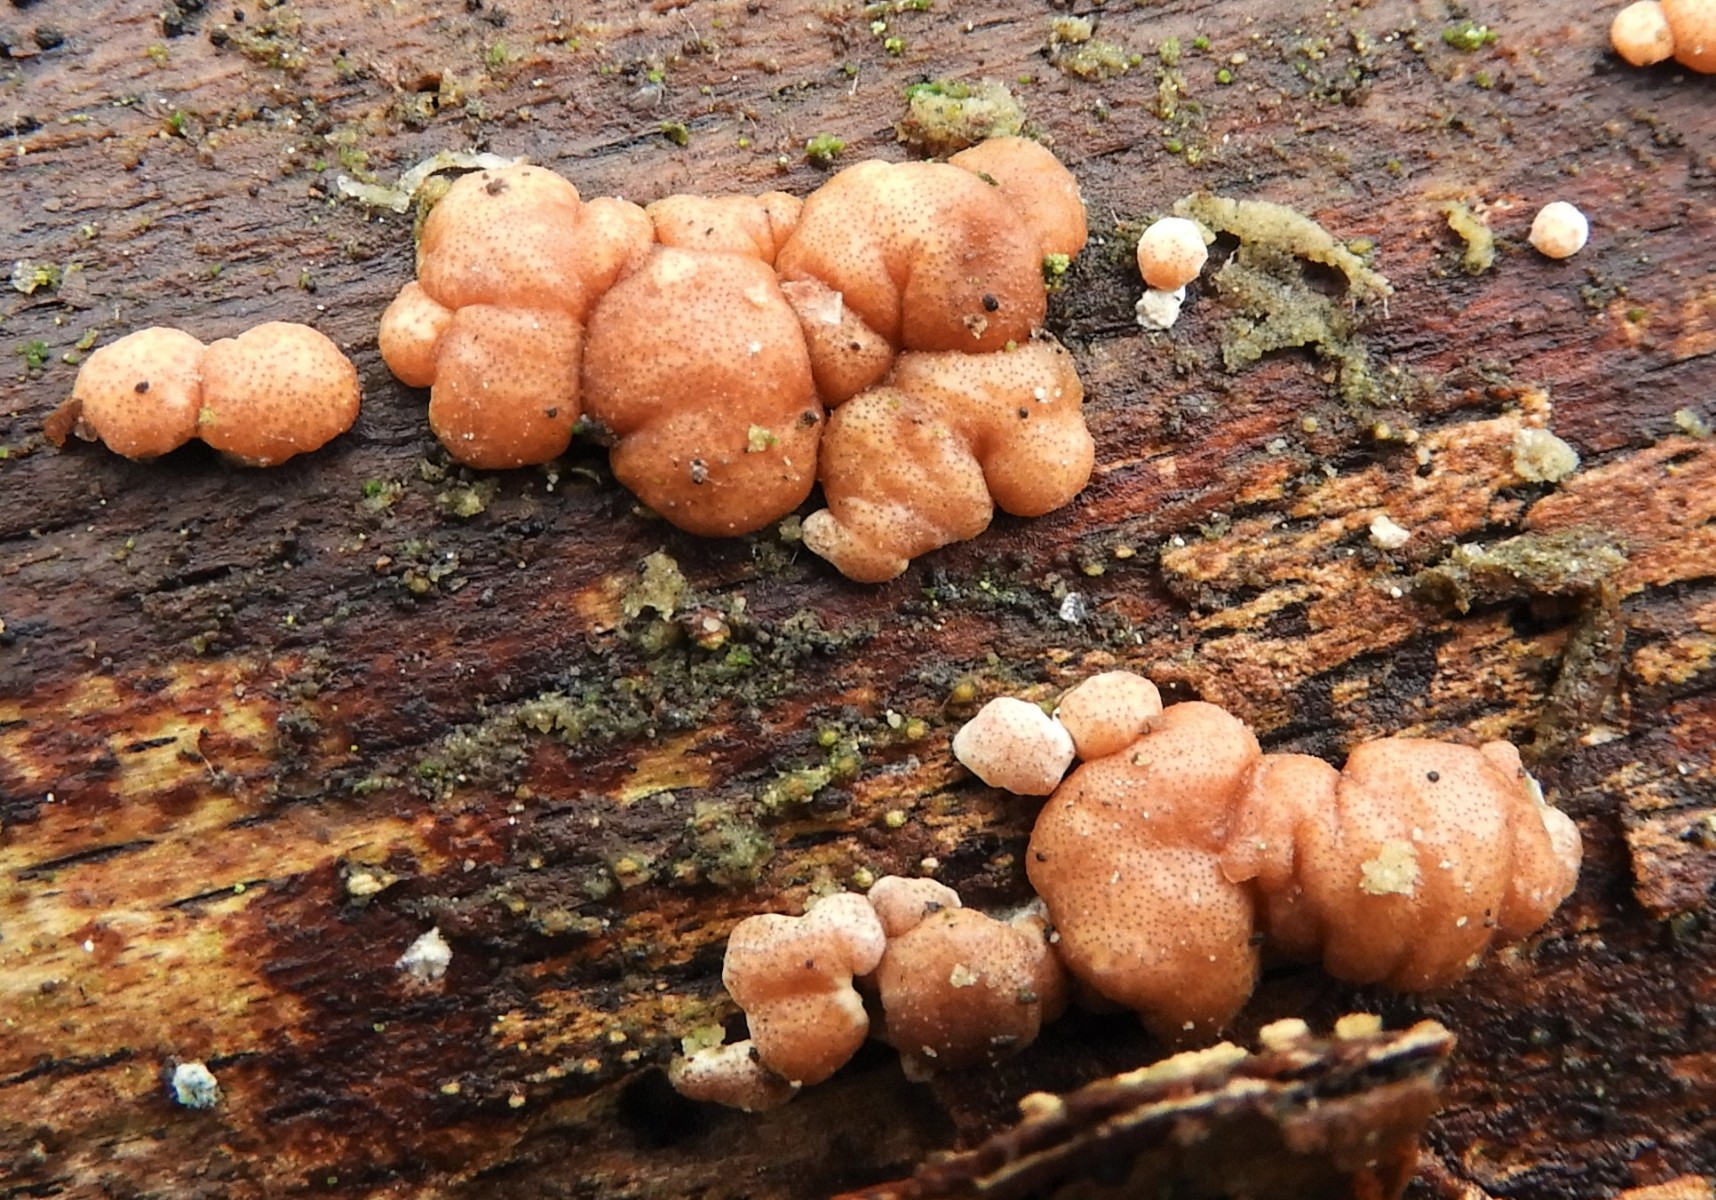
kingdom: Fungi
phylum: Ascomycota
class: Sordariomycetes
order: Hypocreales
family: Hypocreaceae
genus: Trichoderma
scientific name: Trichoderma europaeum
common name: rosabrun kødkerne
